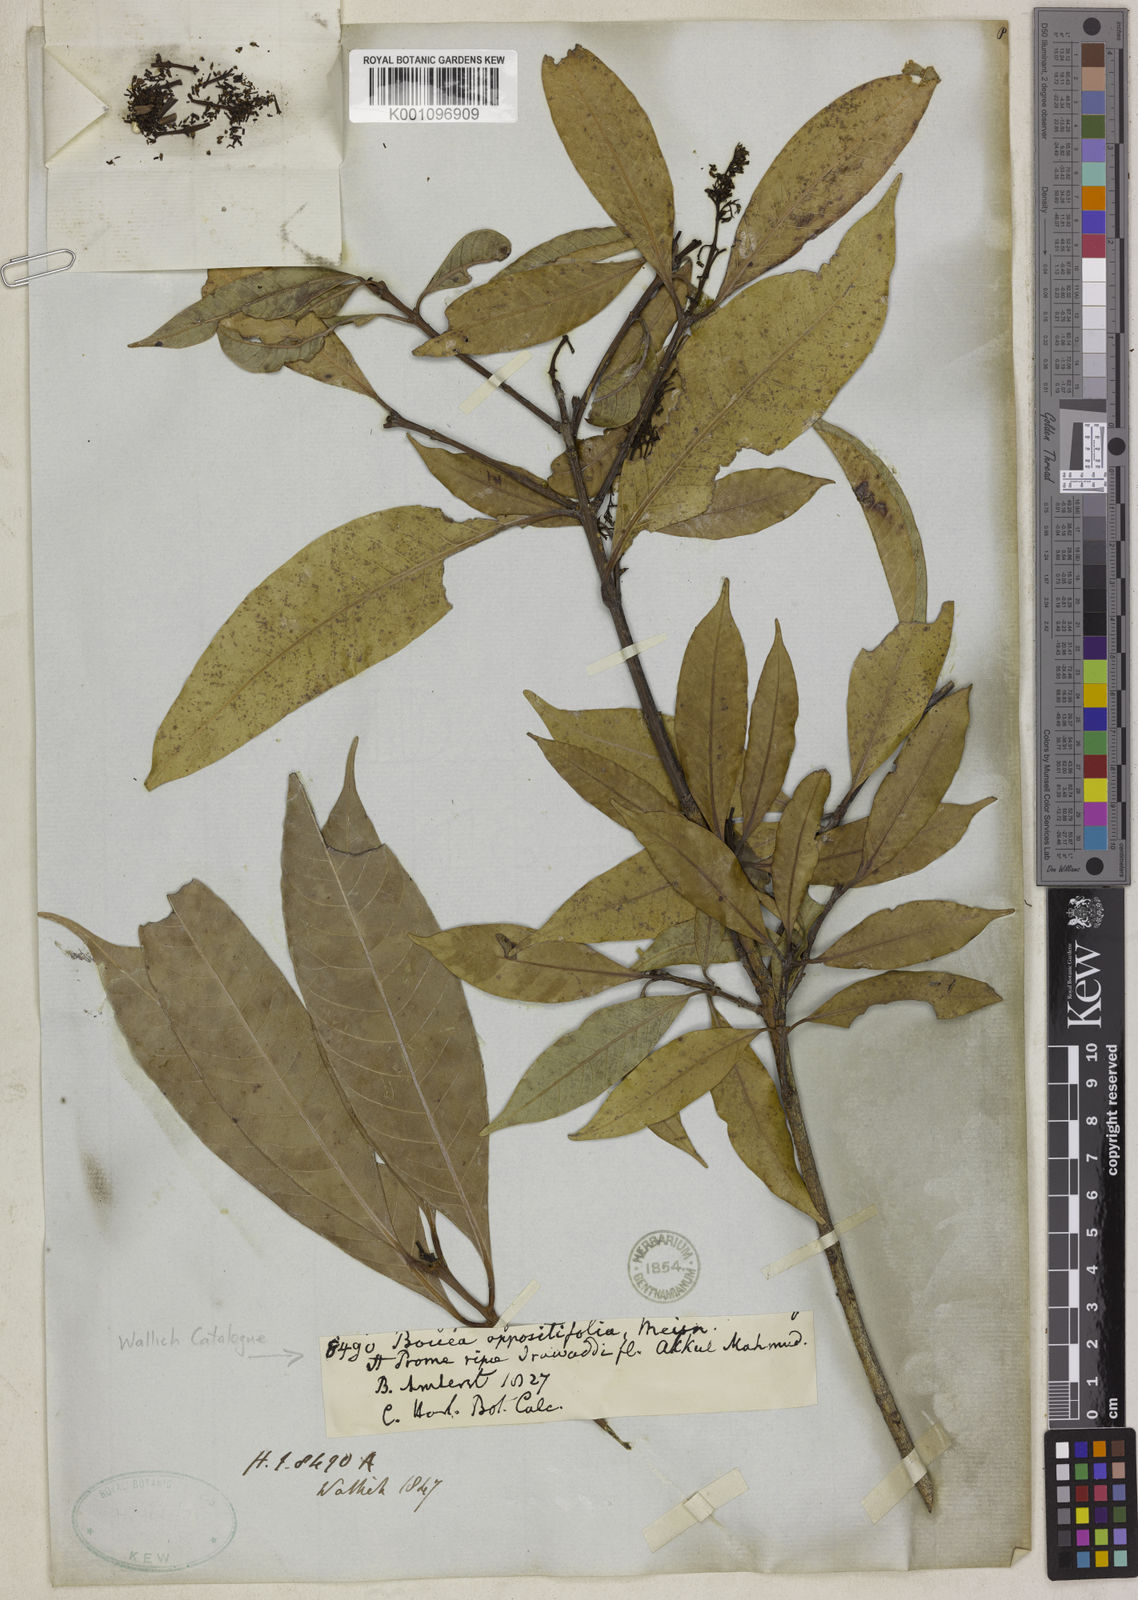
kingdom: Plantae
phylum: Tracheophyta
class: Magnoliopsida
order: Sapindales
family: Anacardiaceae
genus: Bouea
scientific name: Bouea oppositifolia
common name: Narrow-leaved kundang
